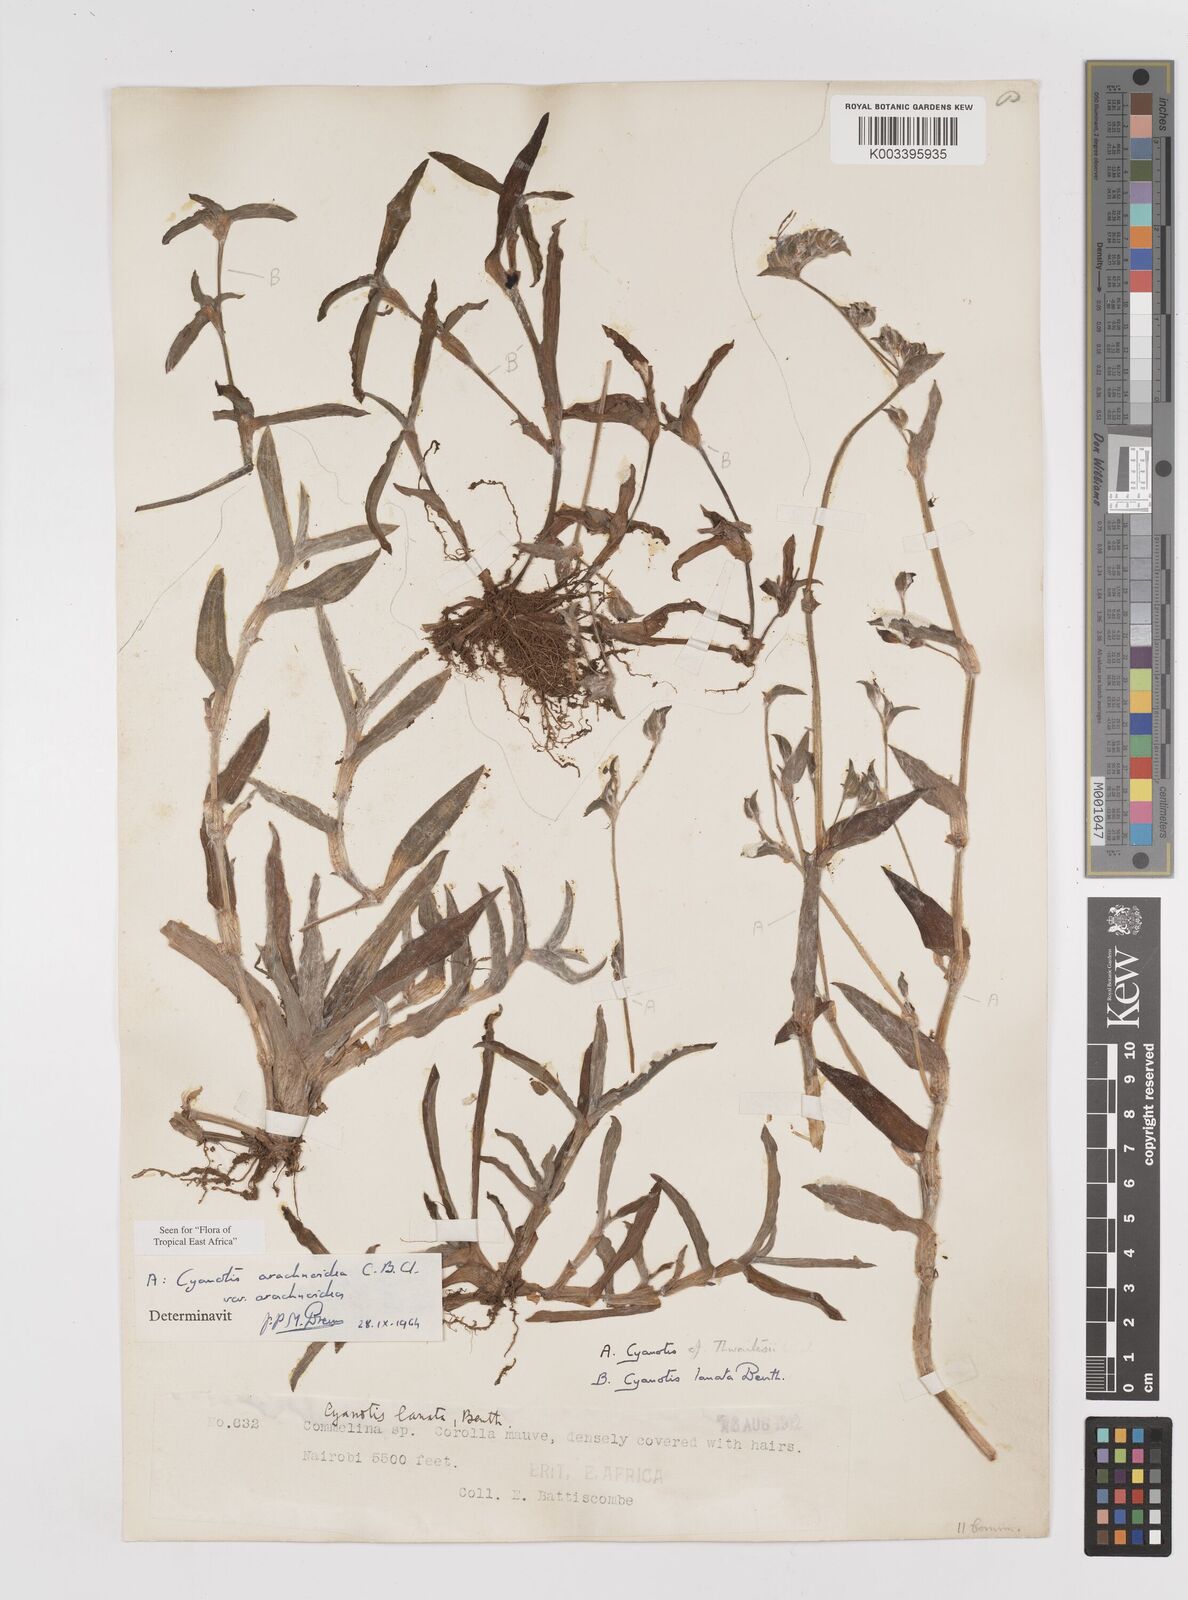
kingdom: Plantae
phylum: Tracheophyta
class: Liliopsida
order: Commelinales
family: Commelinaceae
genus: Cyanotis
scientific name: Cyanotis arachnoidea
